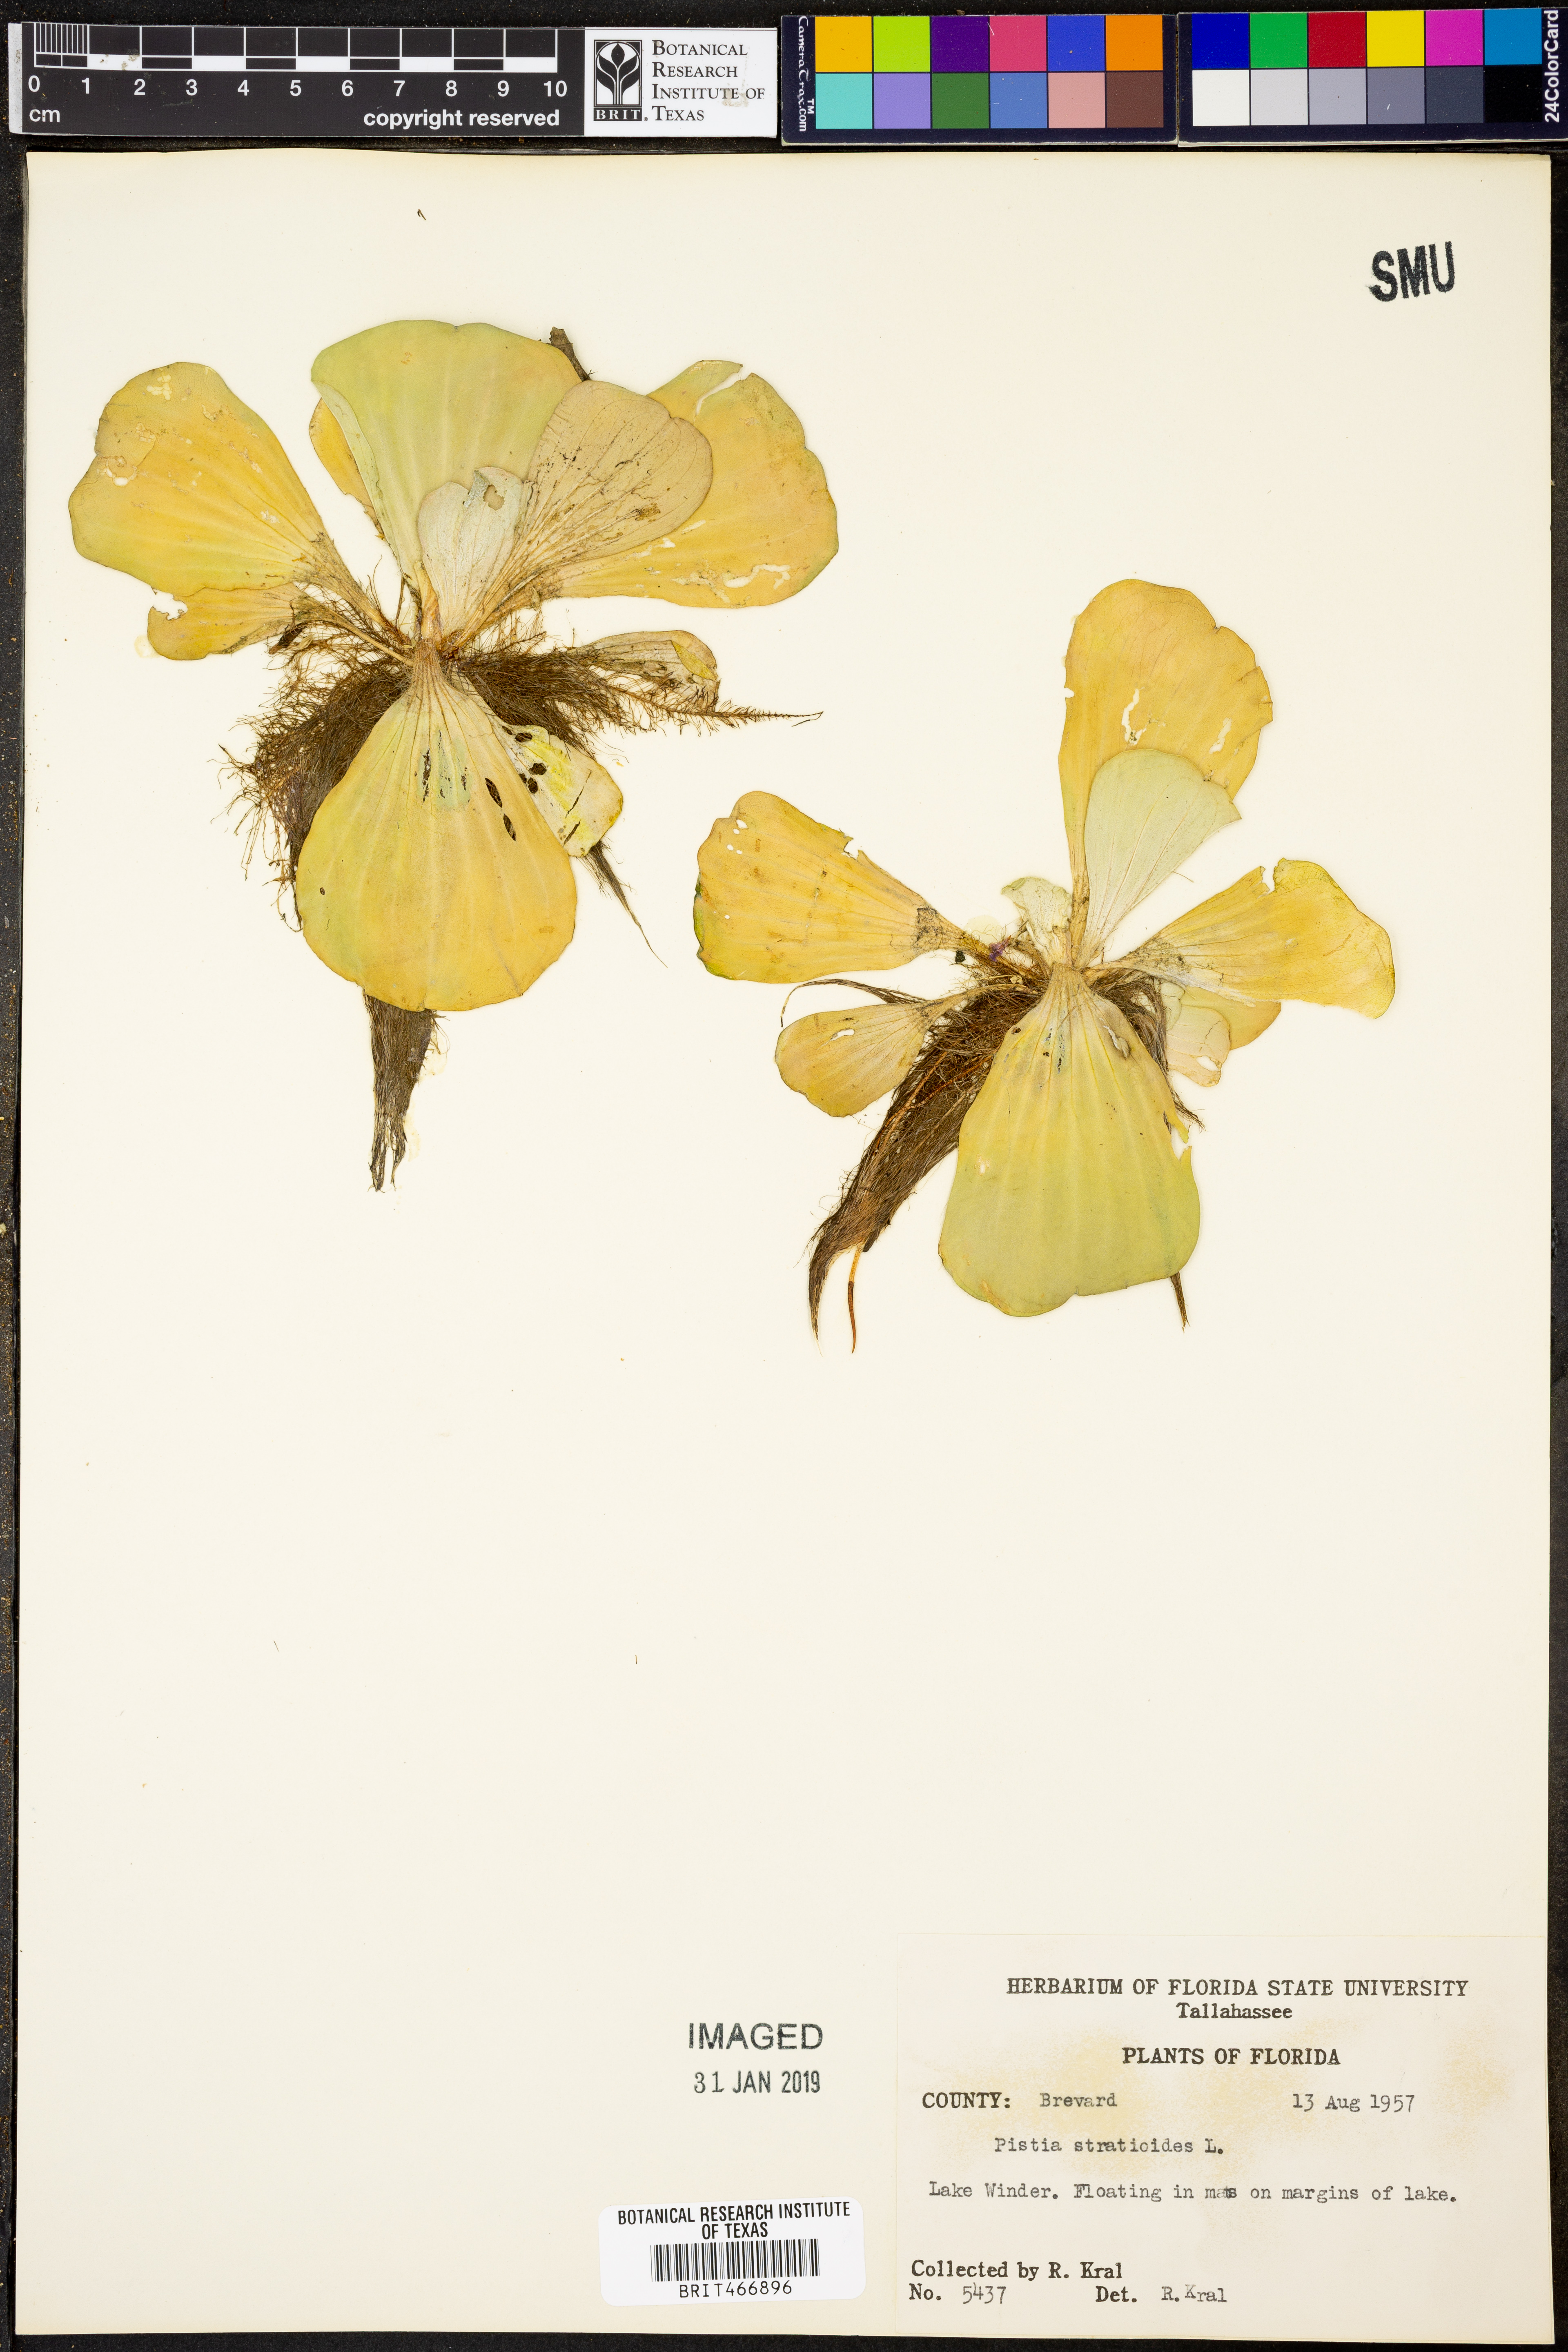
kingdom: Plantae
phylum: Tracheophyta
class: Liliopsida
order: Alismatales
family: Araceae
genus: Pistia
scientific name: Pistia stratiotes
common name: Water lettuce
